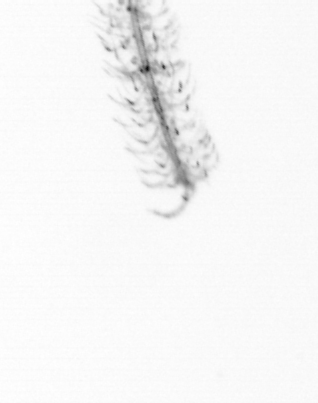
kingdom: Chromista
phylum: Ochrophyta
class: Bacillariophyceae
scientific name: Bacillariophyceae
